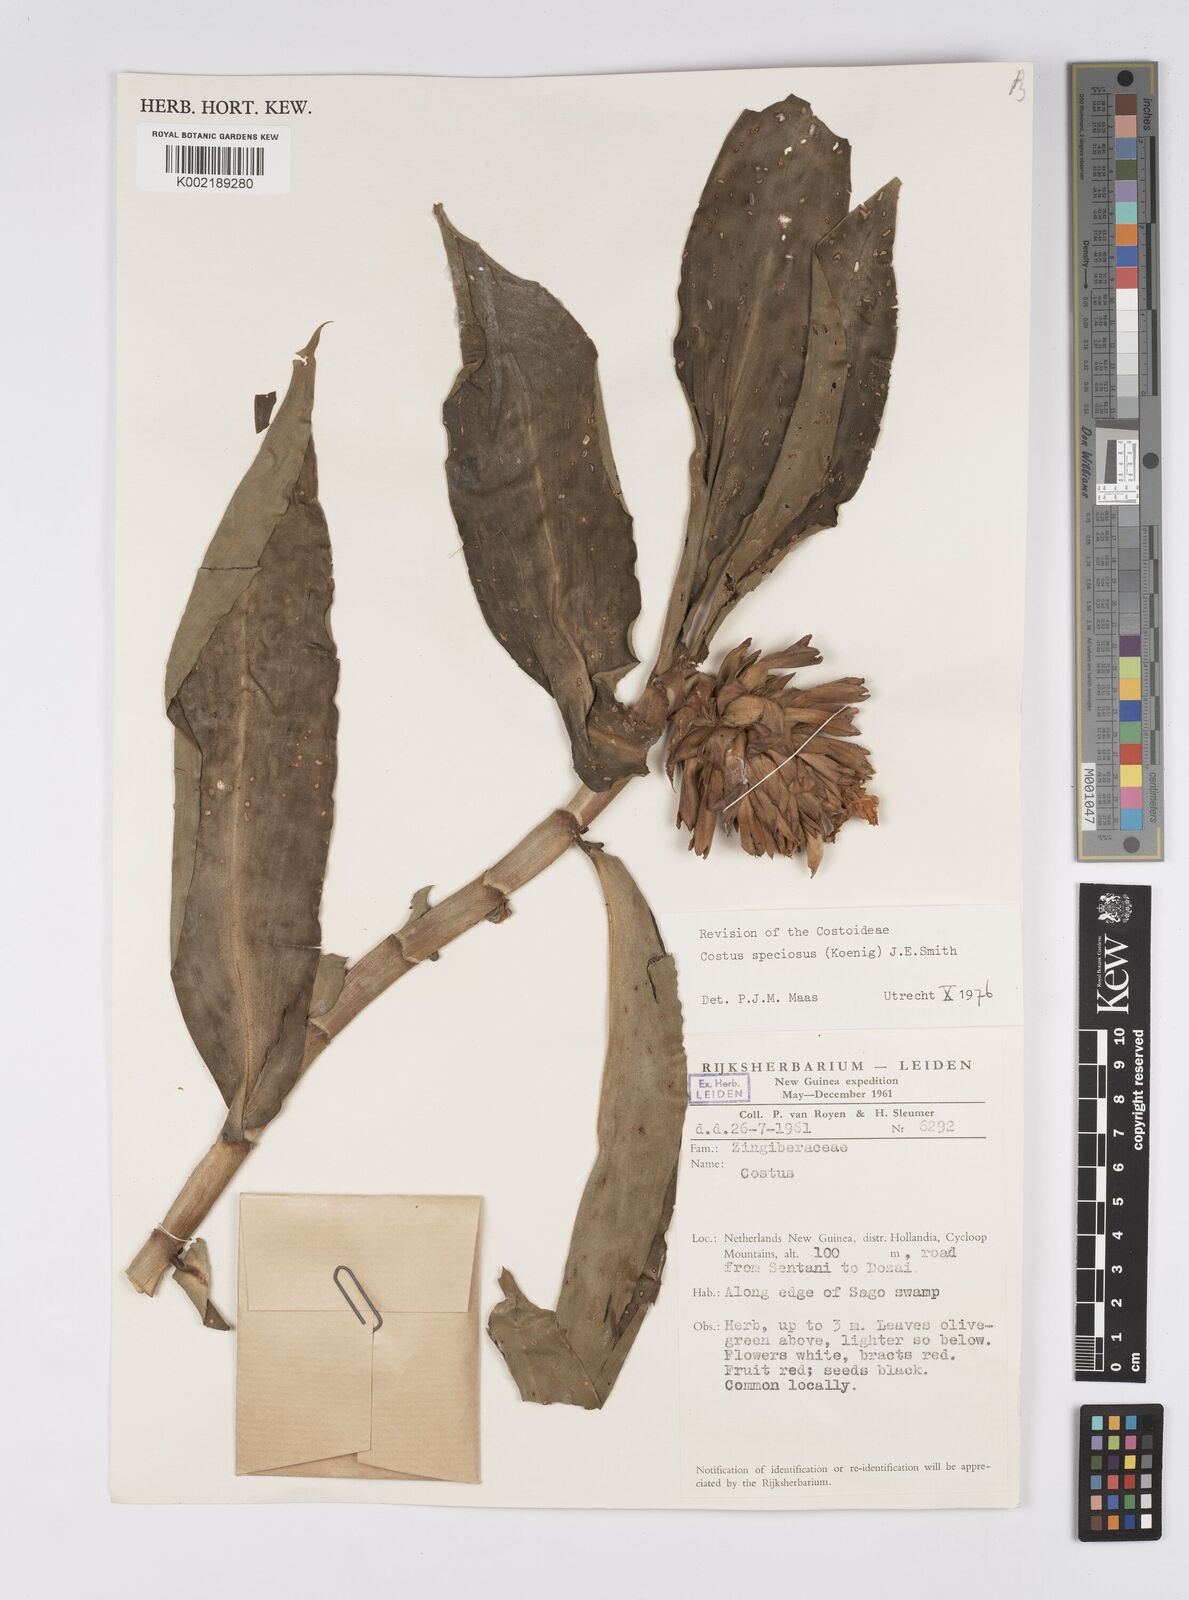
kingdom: Plantae
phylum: Tracheophyta
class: Liliopsida
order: Zingiberales
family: Costaceae
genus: Hellenia
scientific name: Hellenia speciosa
